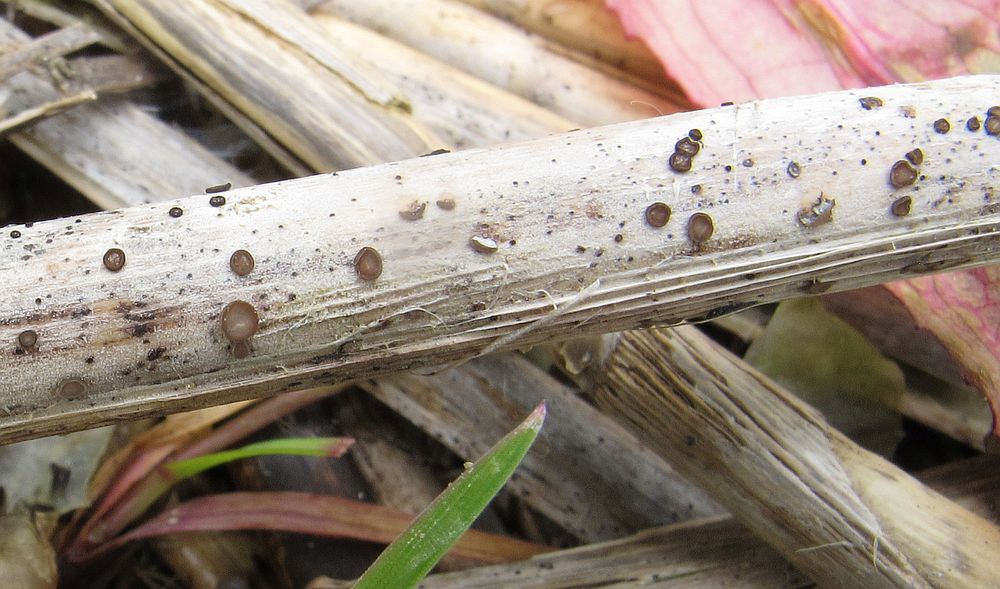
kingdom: Fungi
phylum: Ascomycota
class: Leotiomycetes
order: Helotiales
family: Mollisiaceae
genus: Mollisia
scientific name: Mollisia hydrophila
